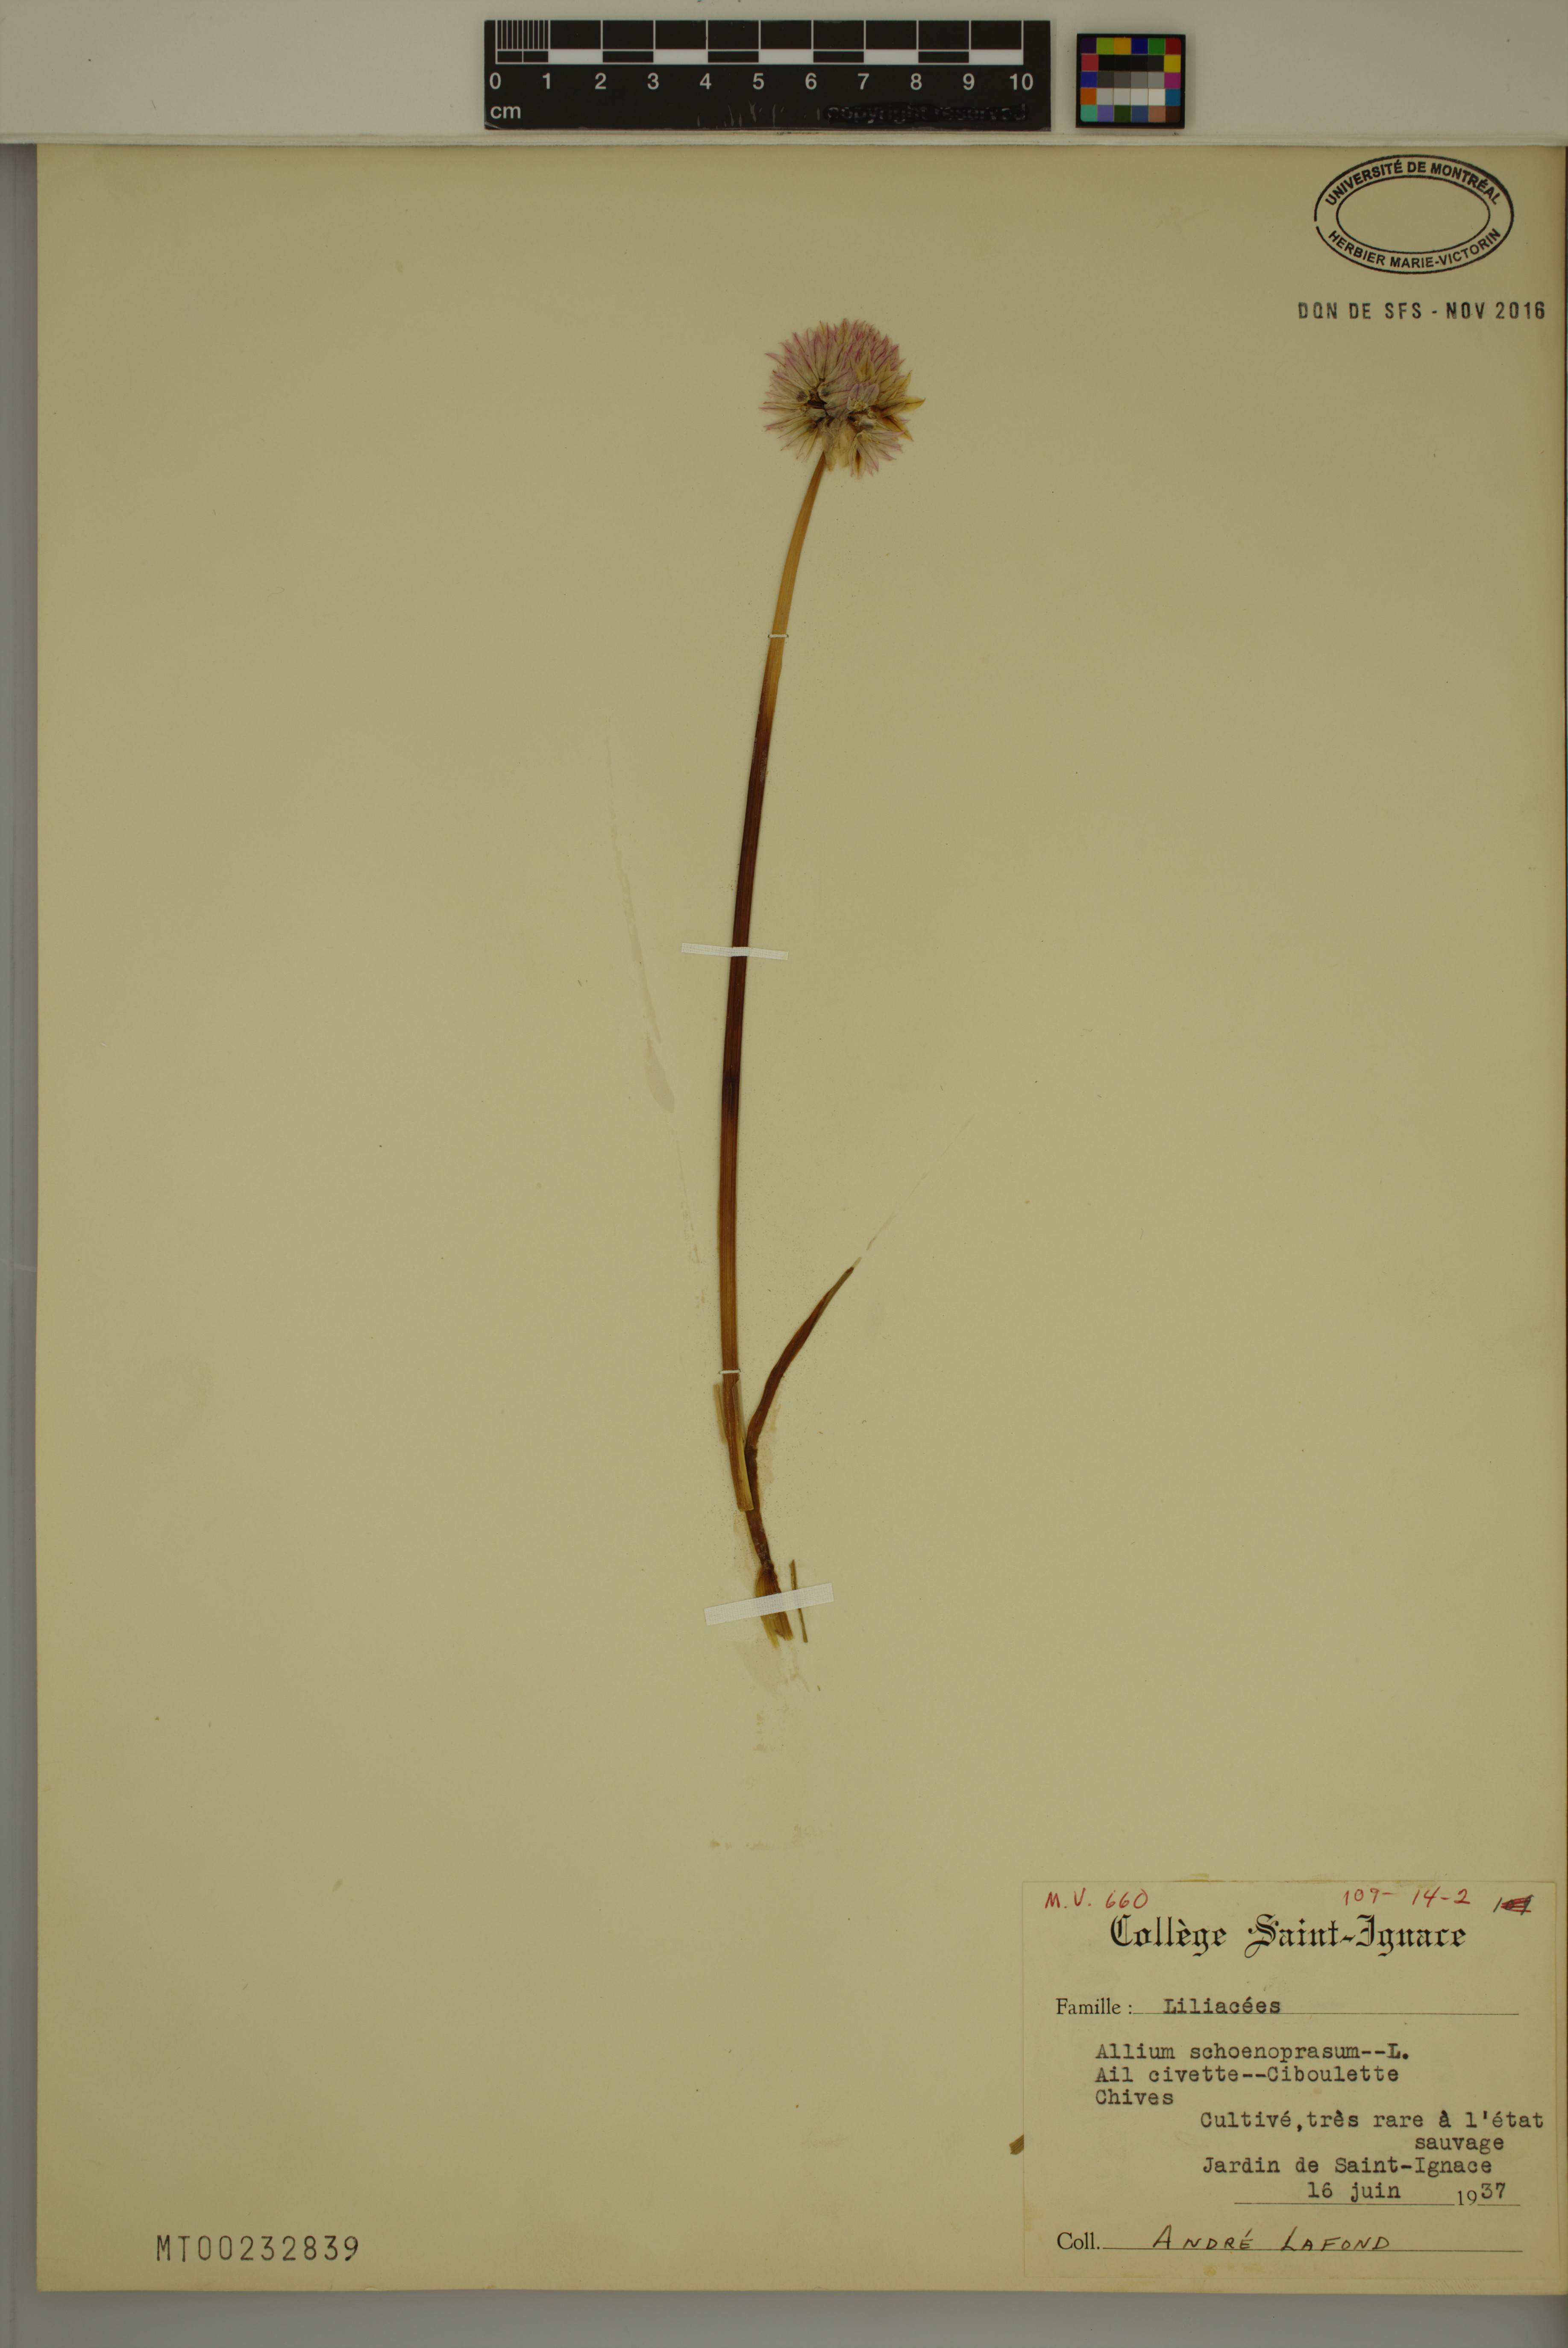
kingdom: Plantae
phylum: Tracheophyta
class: Liliopsida
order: Asparagales
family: Amaryllidaceae
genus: Allium
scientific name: Allium schoenoprasum
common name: Chives
